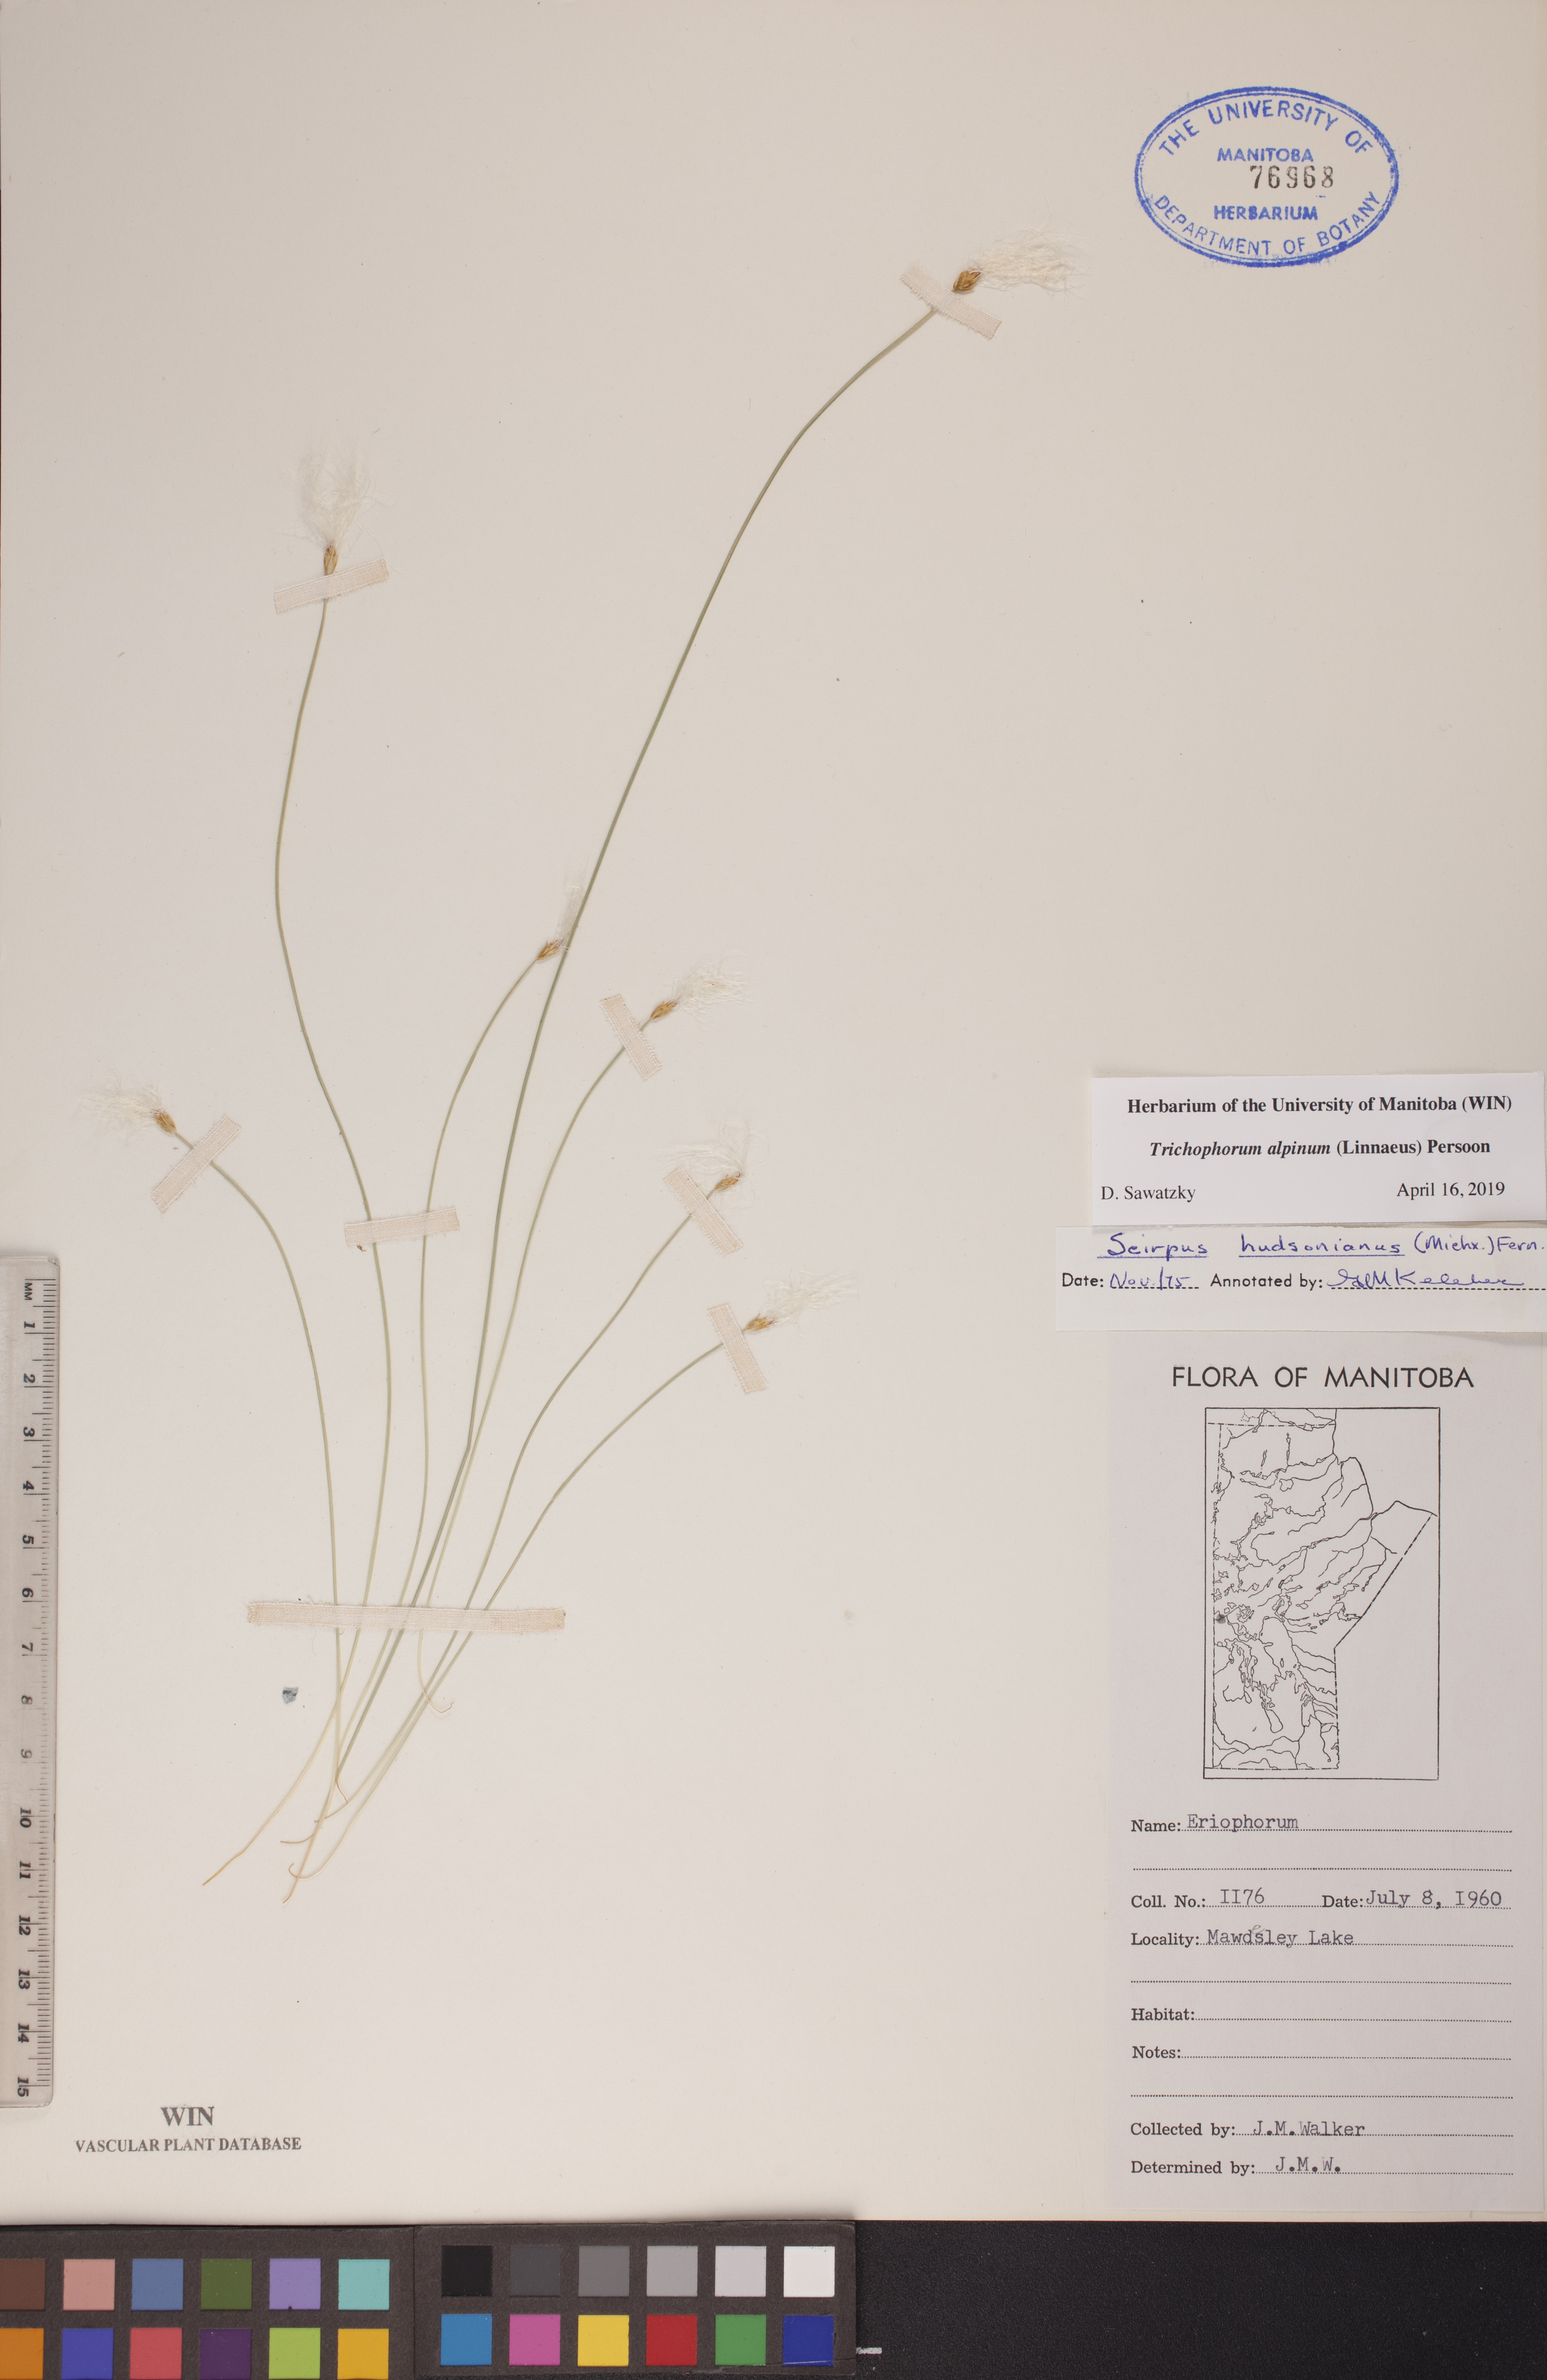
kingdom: Plantae
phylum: Tracheophyta
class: Liliopsida
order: Poales
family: Cyperaceae
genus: Trichophorum
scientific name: Trichophorum alpinum
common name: Alpine bulrush
